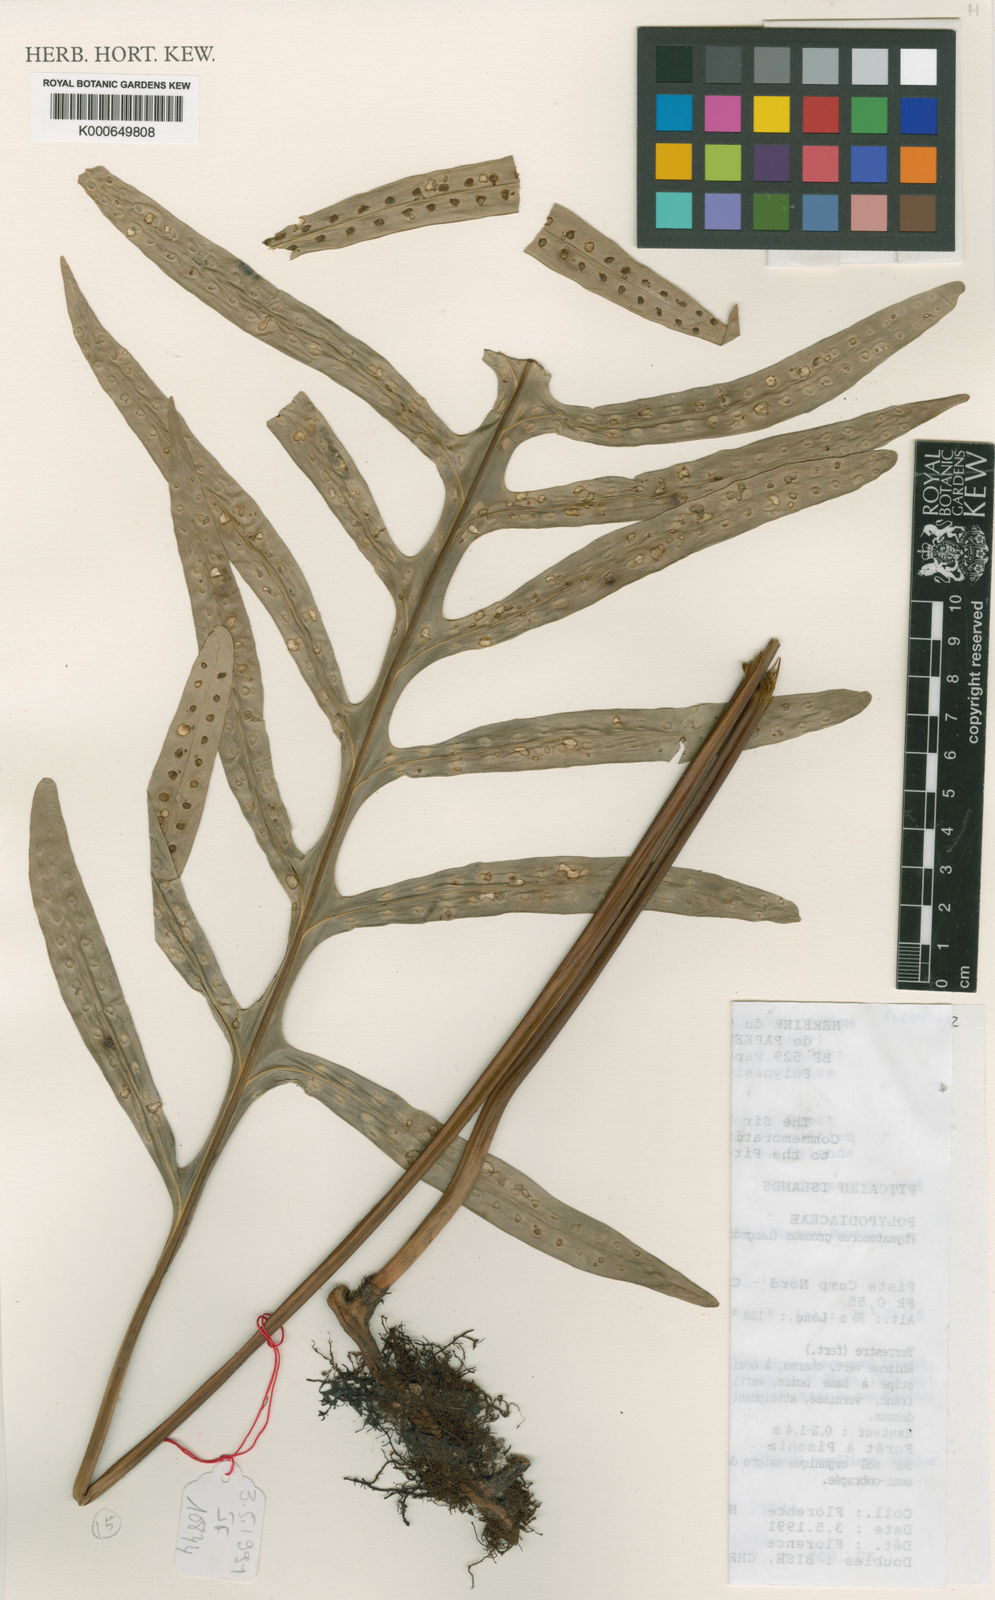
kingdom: Plantae
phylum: Tracheophyta
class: Polypodiopsida
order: Polypodiales
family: Polypodiaceae
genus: Microsorum
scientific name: Microsorum grossum
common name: Musk fern
